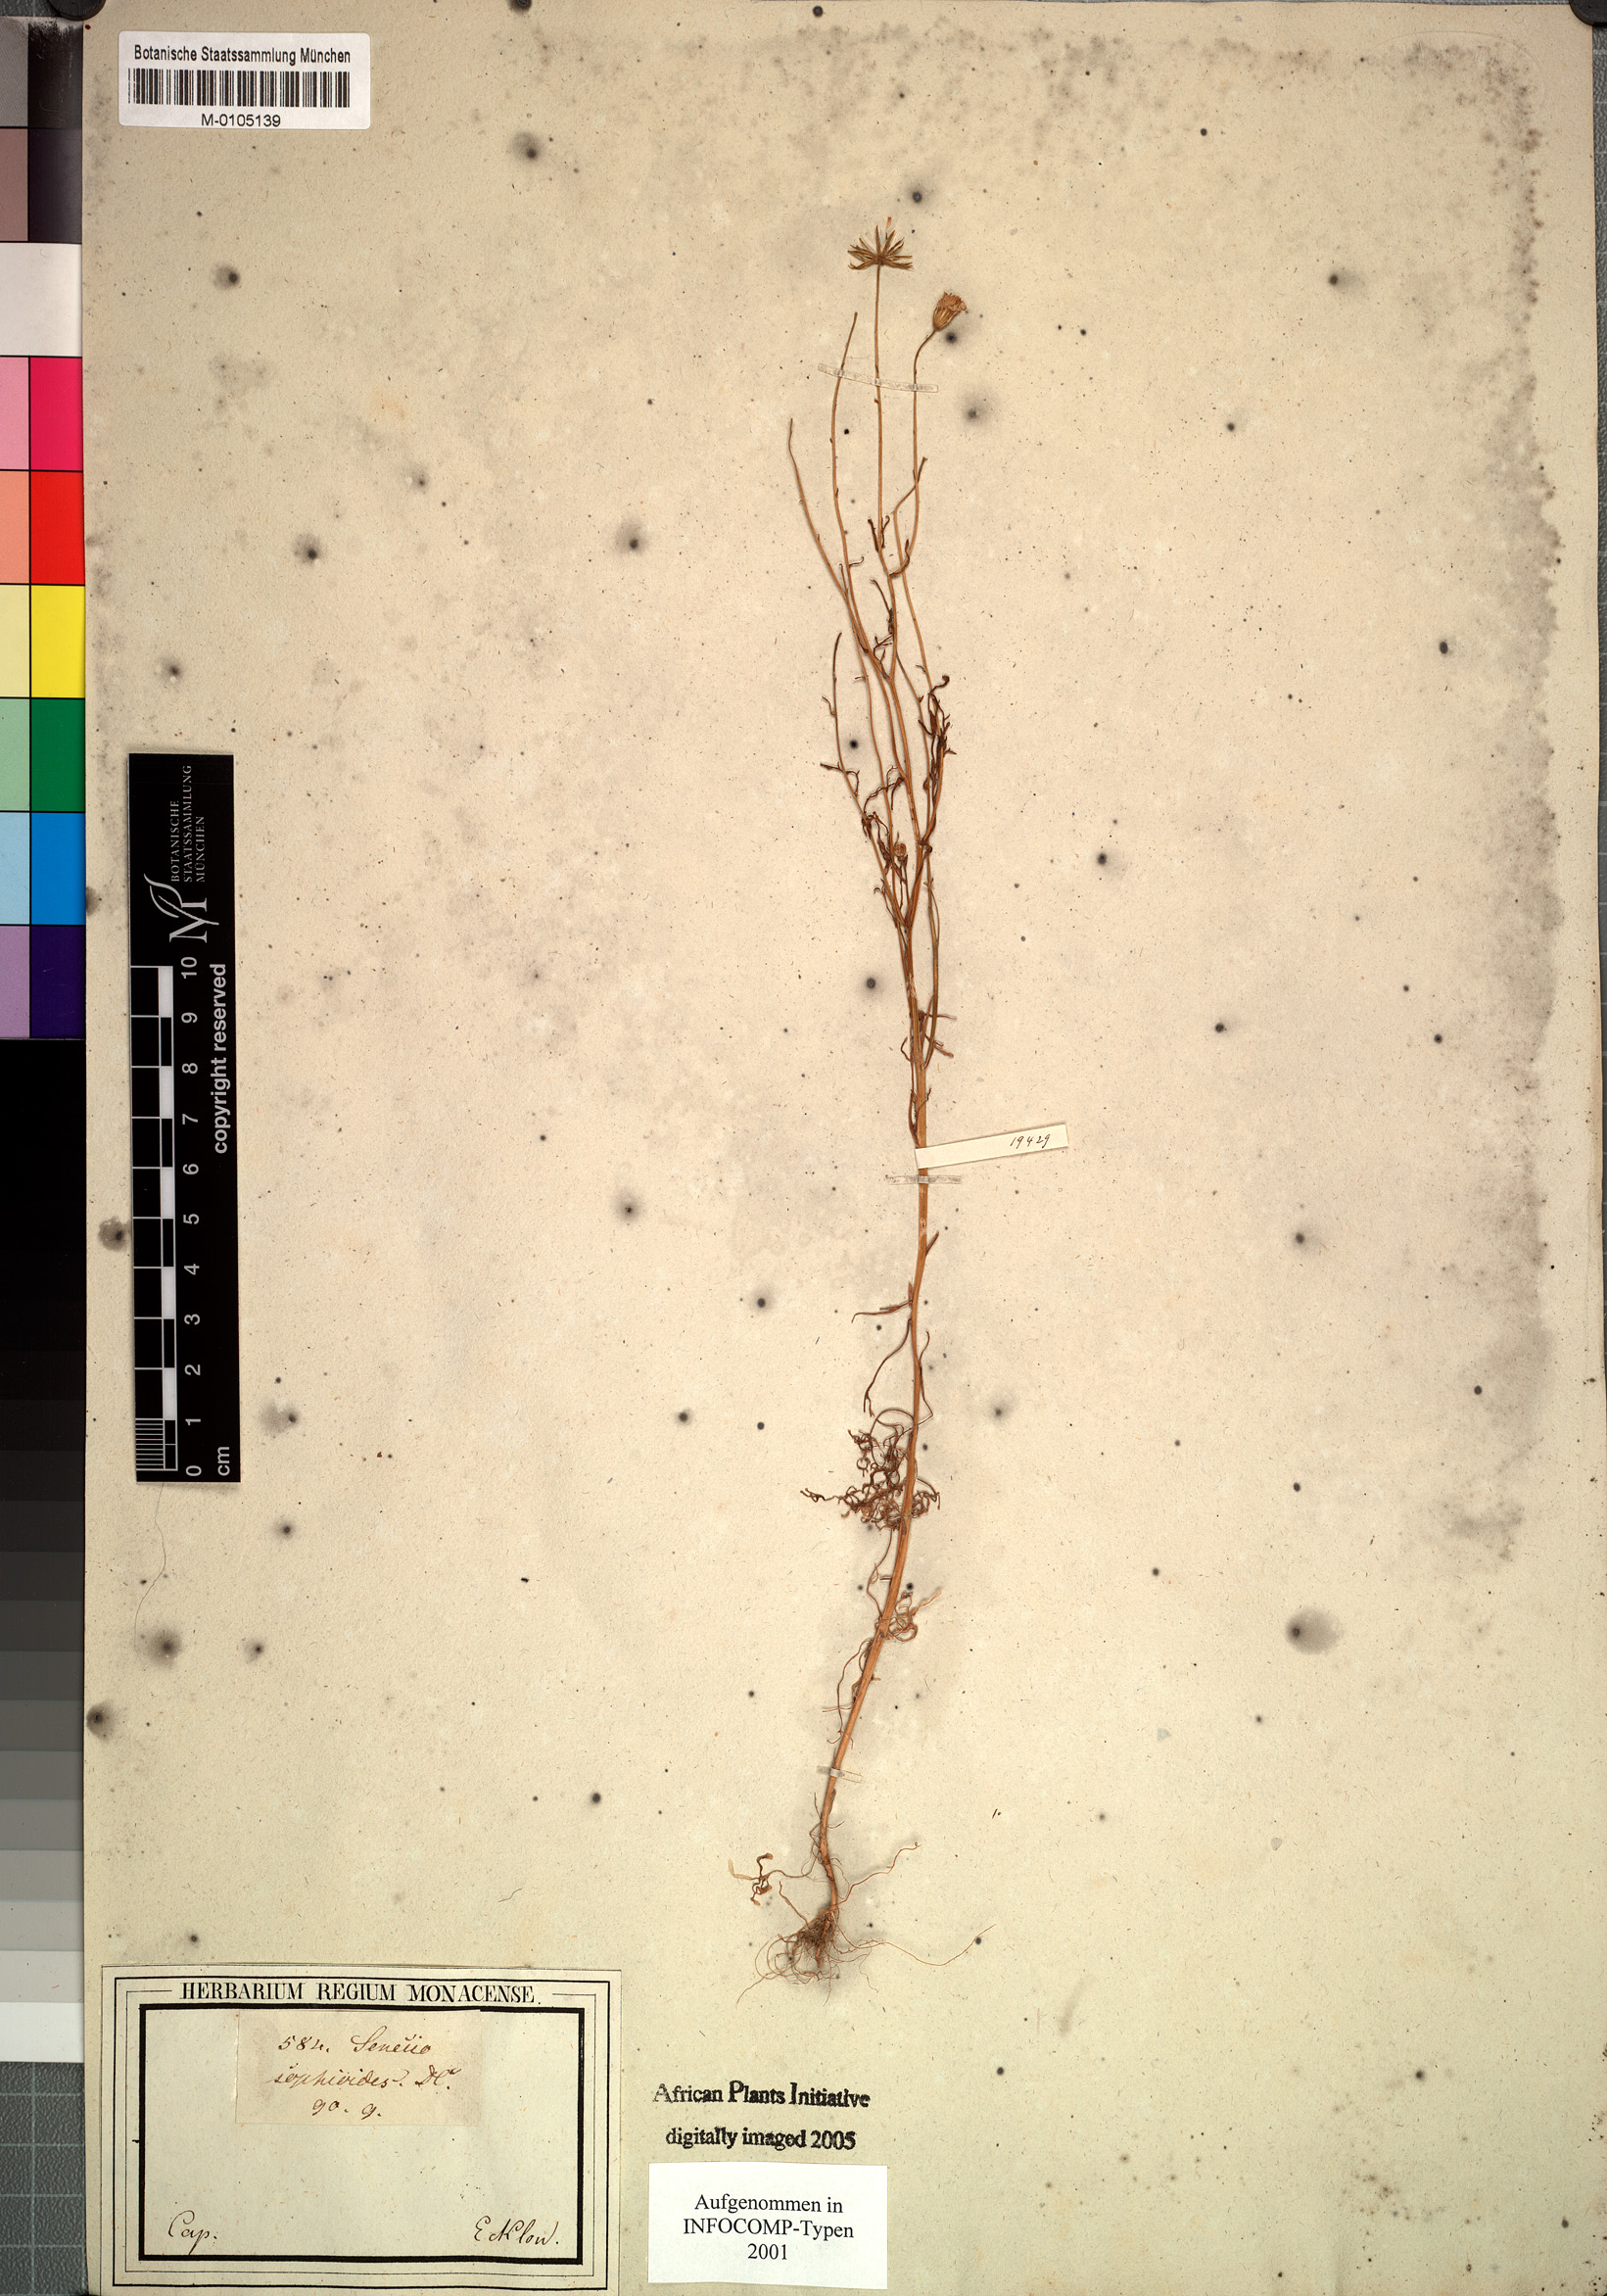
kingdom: Plantae
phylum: Tracheophyta
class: Magnoliopsida
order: Asterales
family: Asteraceae
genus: Senecio
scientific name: Senecio sophioides
